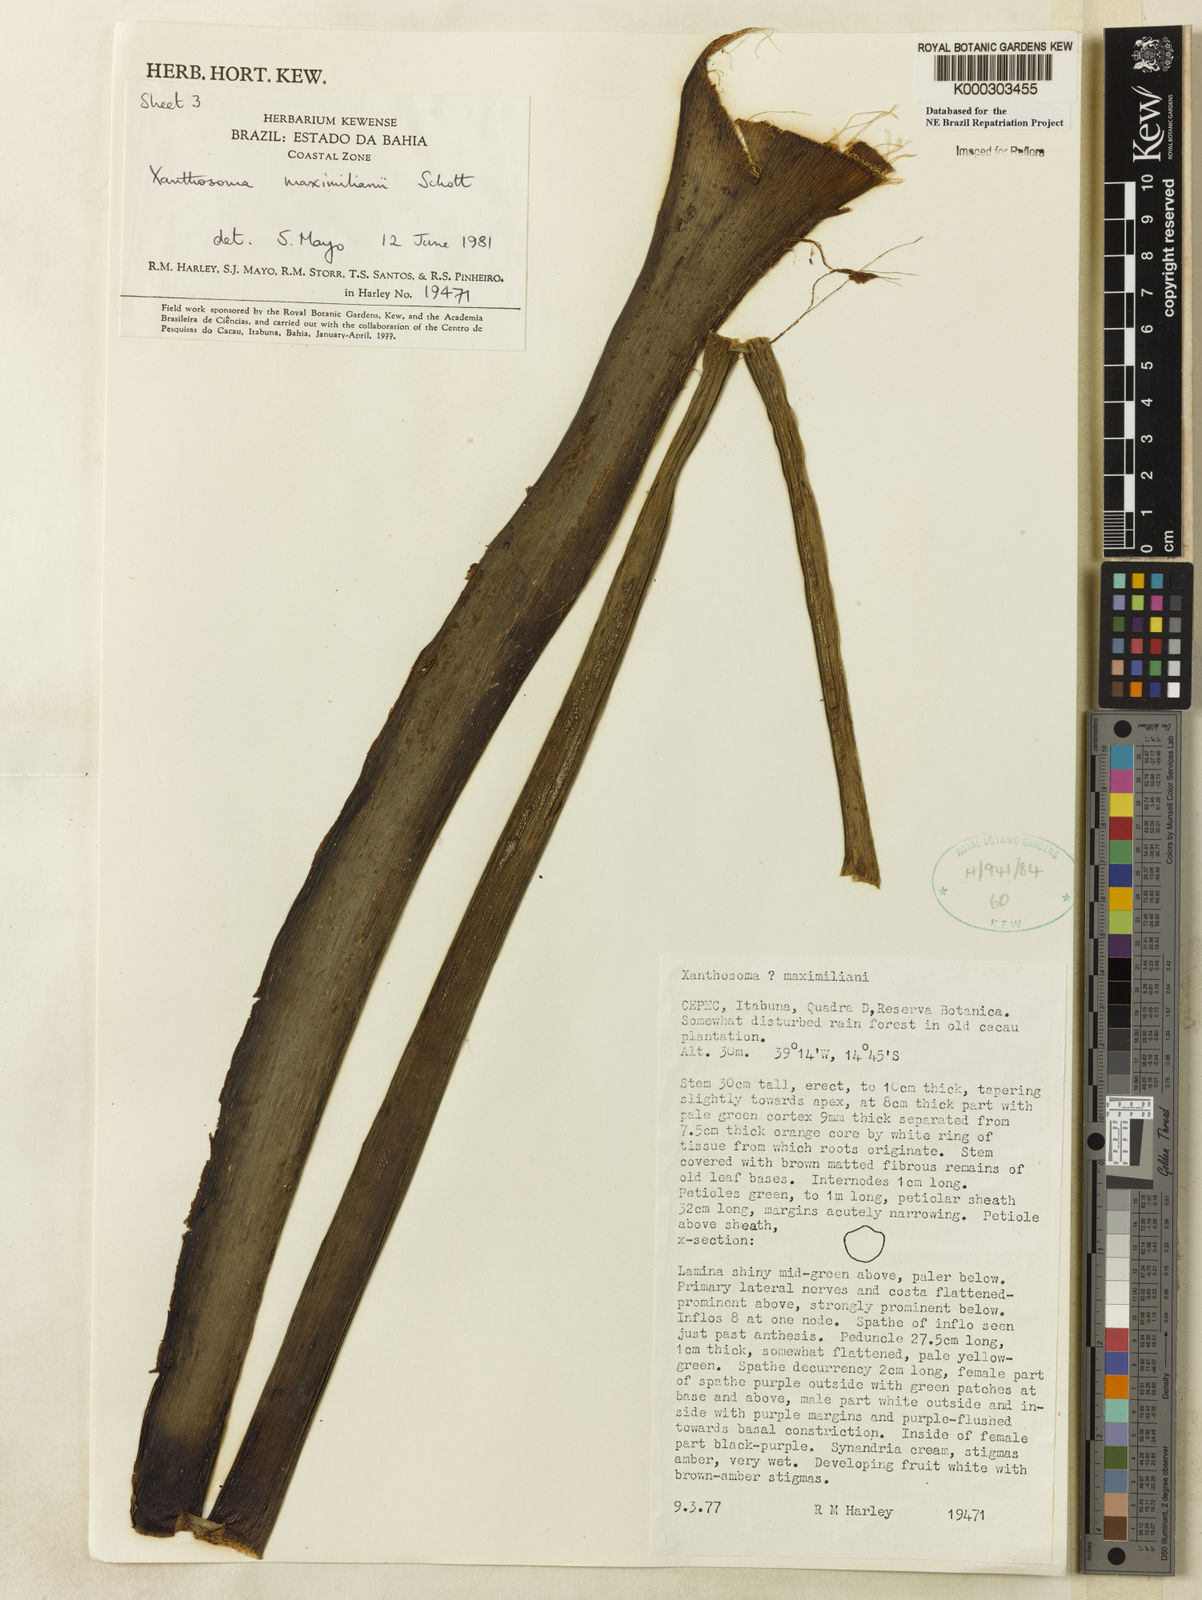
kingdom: Plantae
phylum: Tracheophyta
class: Liliopsida
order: Alismatales
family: Araceae
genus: Xanthosoma
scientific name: Xanthosoma maximiliani
